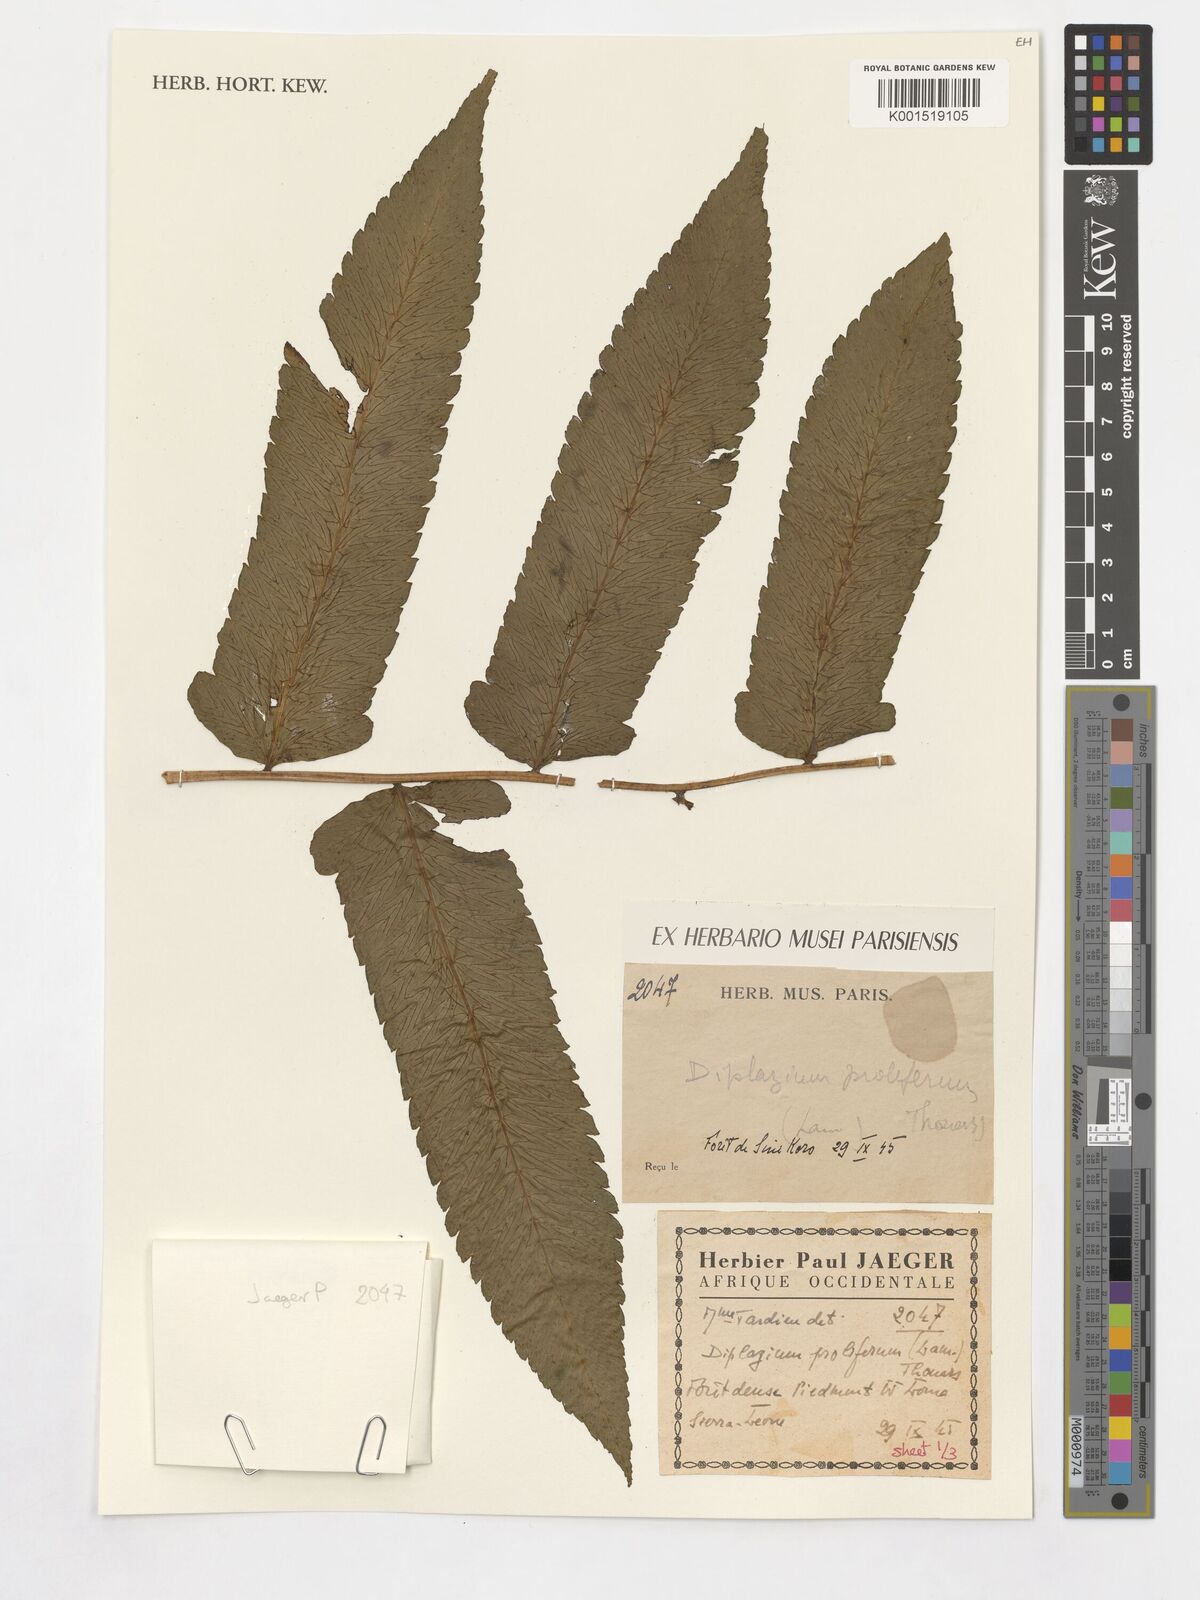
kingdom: Plantae
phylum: Tracheophyta
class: Polypodiopsida
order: Polypodiales
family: Athyriaceae
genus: Diplazium
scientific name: Diplazium proliferum
